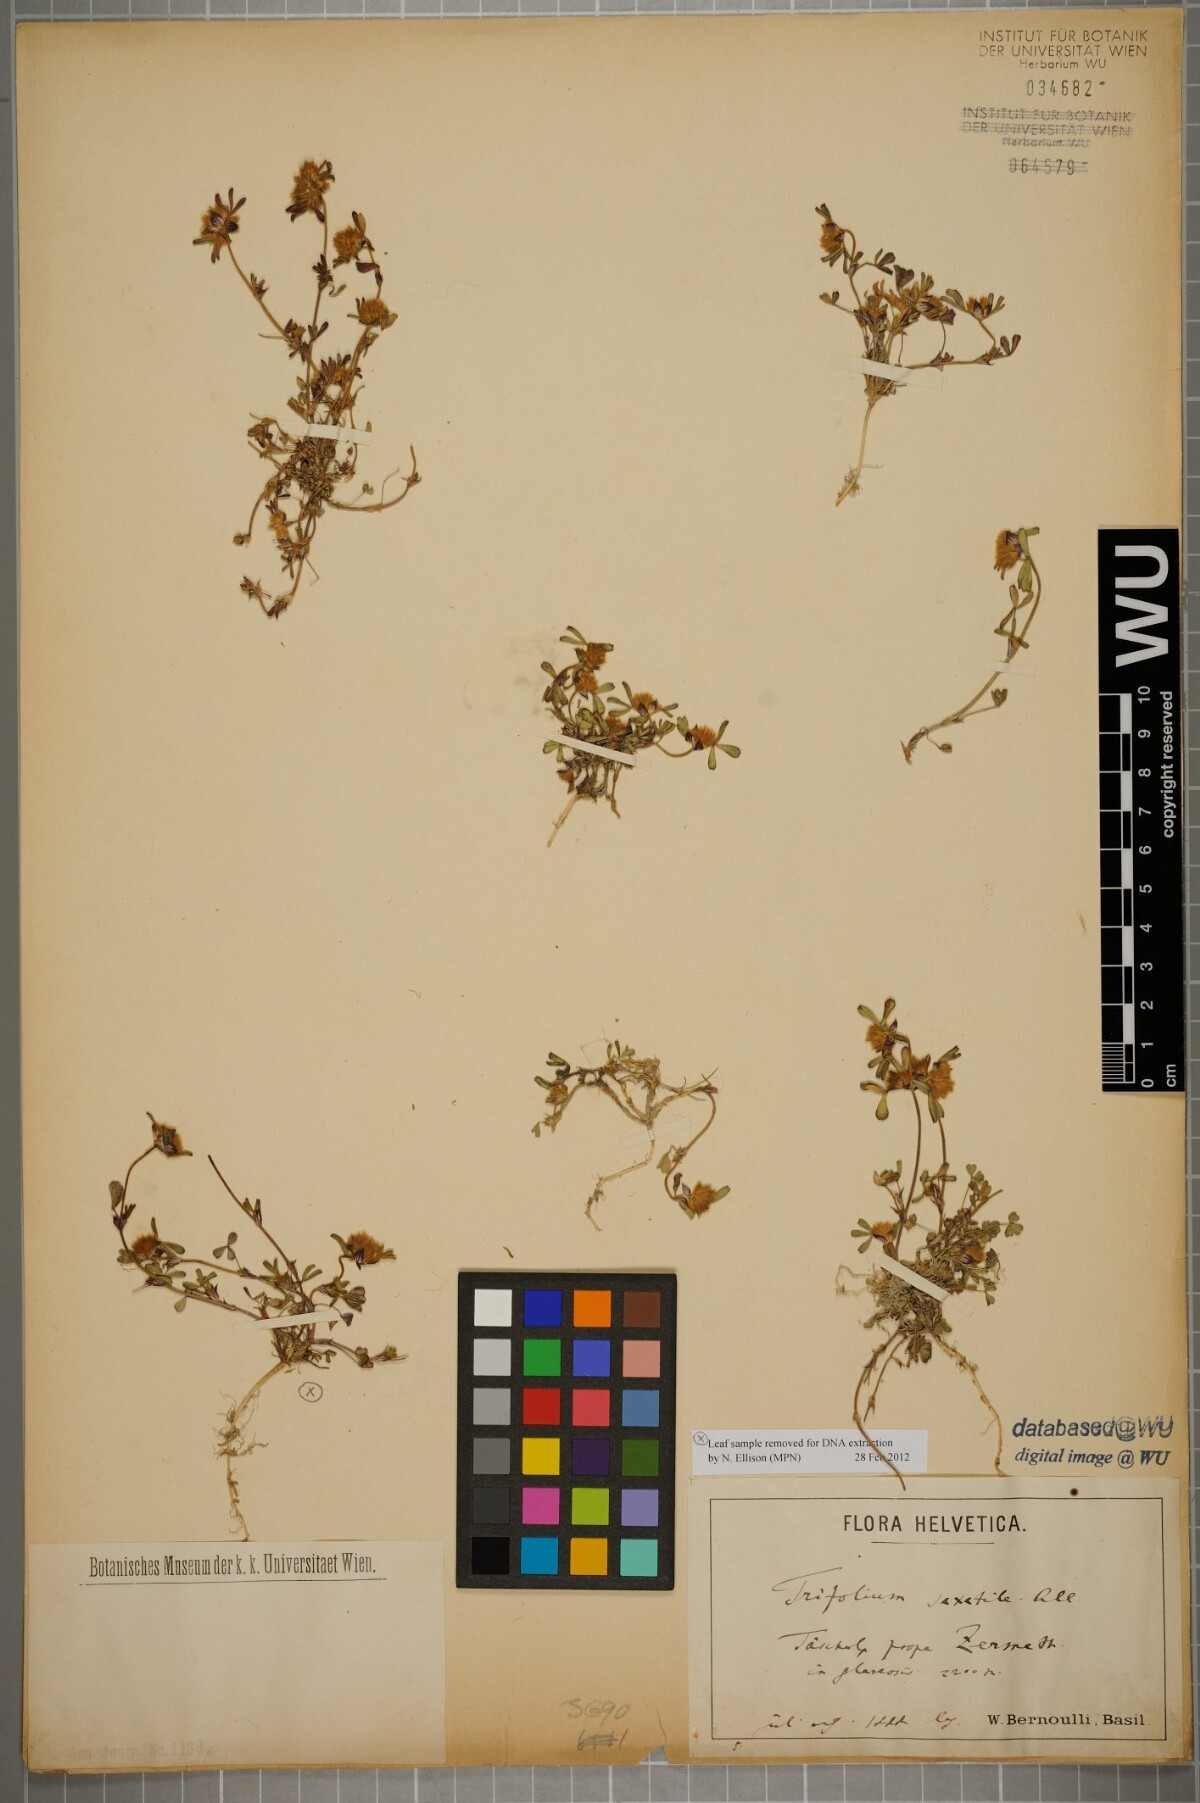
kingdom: Plantae
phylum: Tracheophyta
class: Magnoliopsida
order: Fabales
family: Fabaceae
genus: Trifolium
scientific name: Trifolium saxatile
